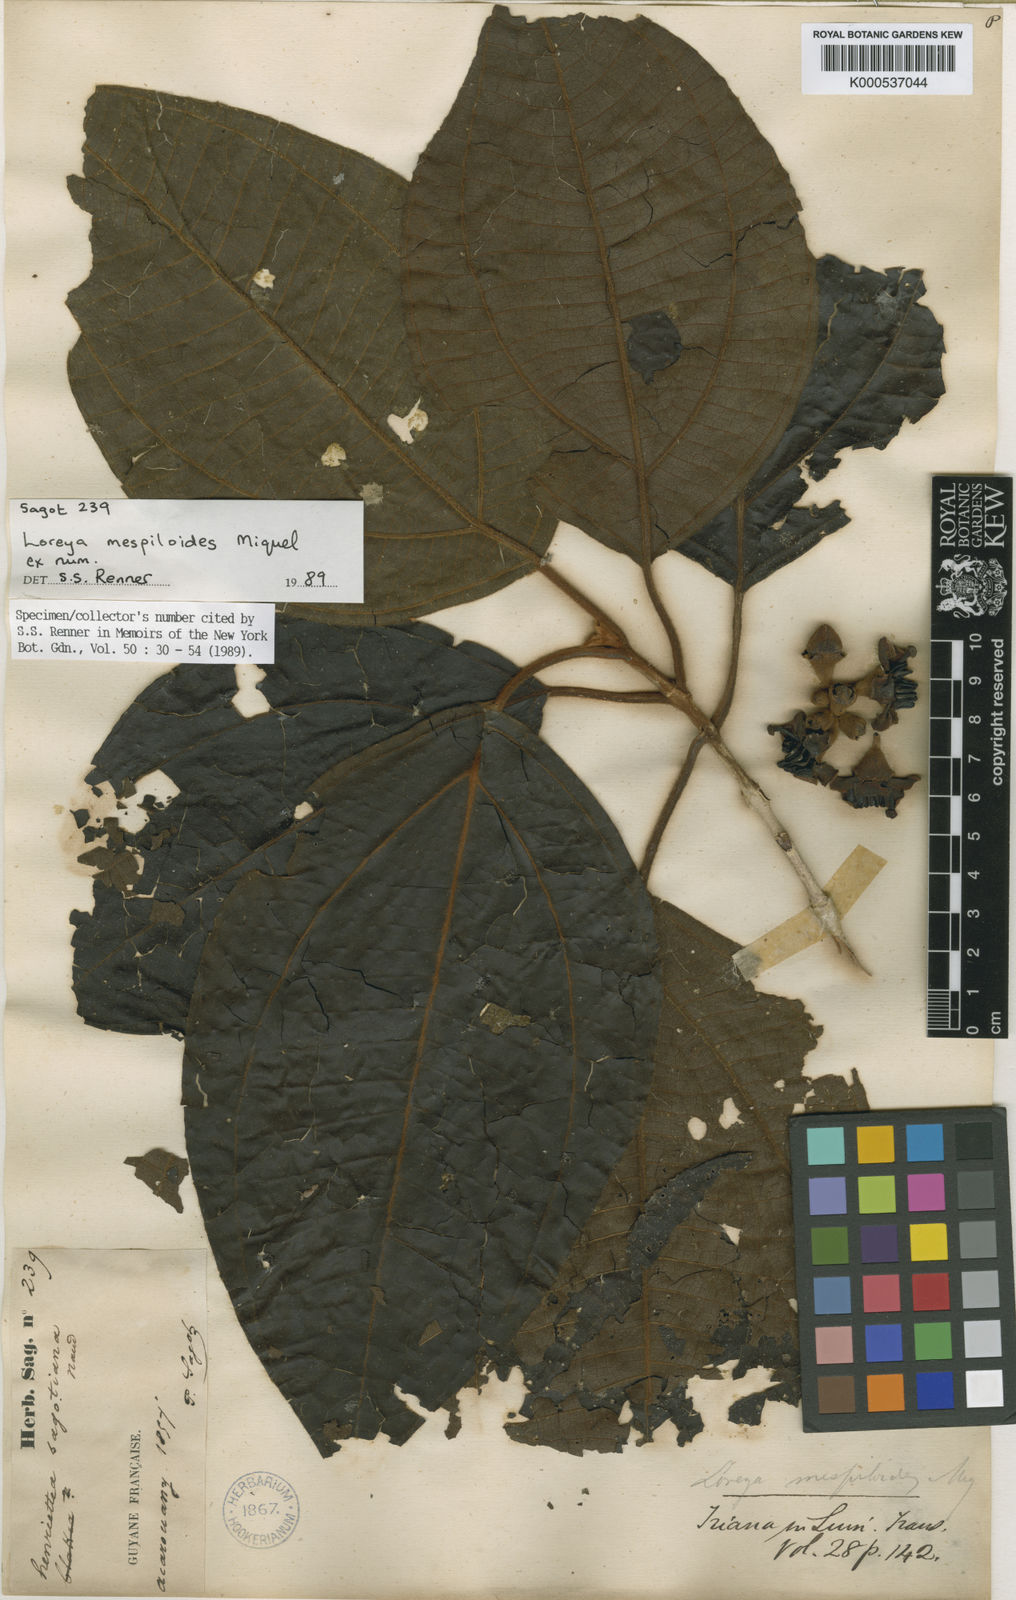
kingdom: Plantae
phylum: Tracheophyta
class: Magnoliopsida
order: Myrtales
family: Melastomataceae
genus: Bellucia
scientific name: Bellucia mespiloides
